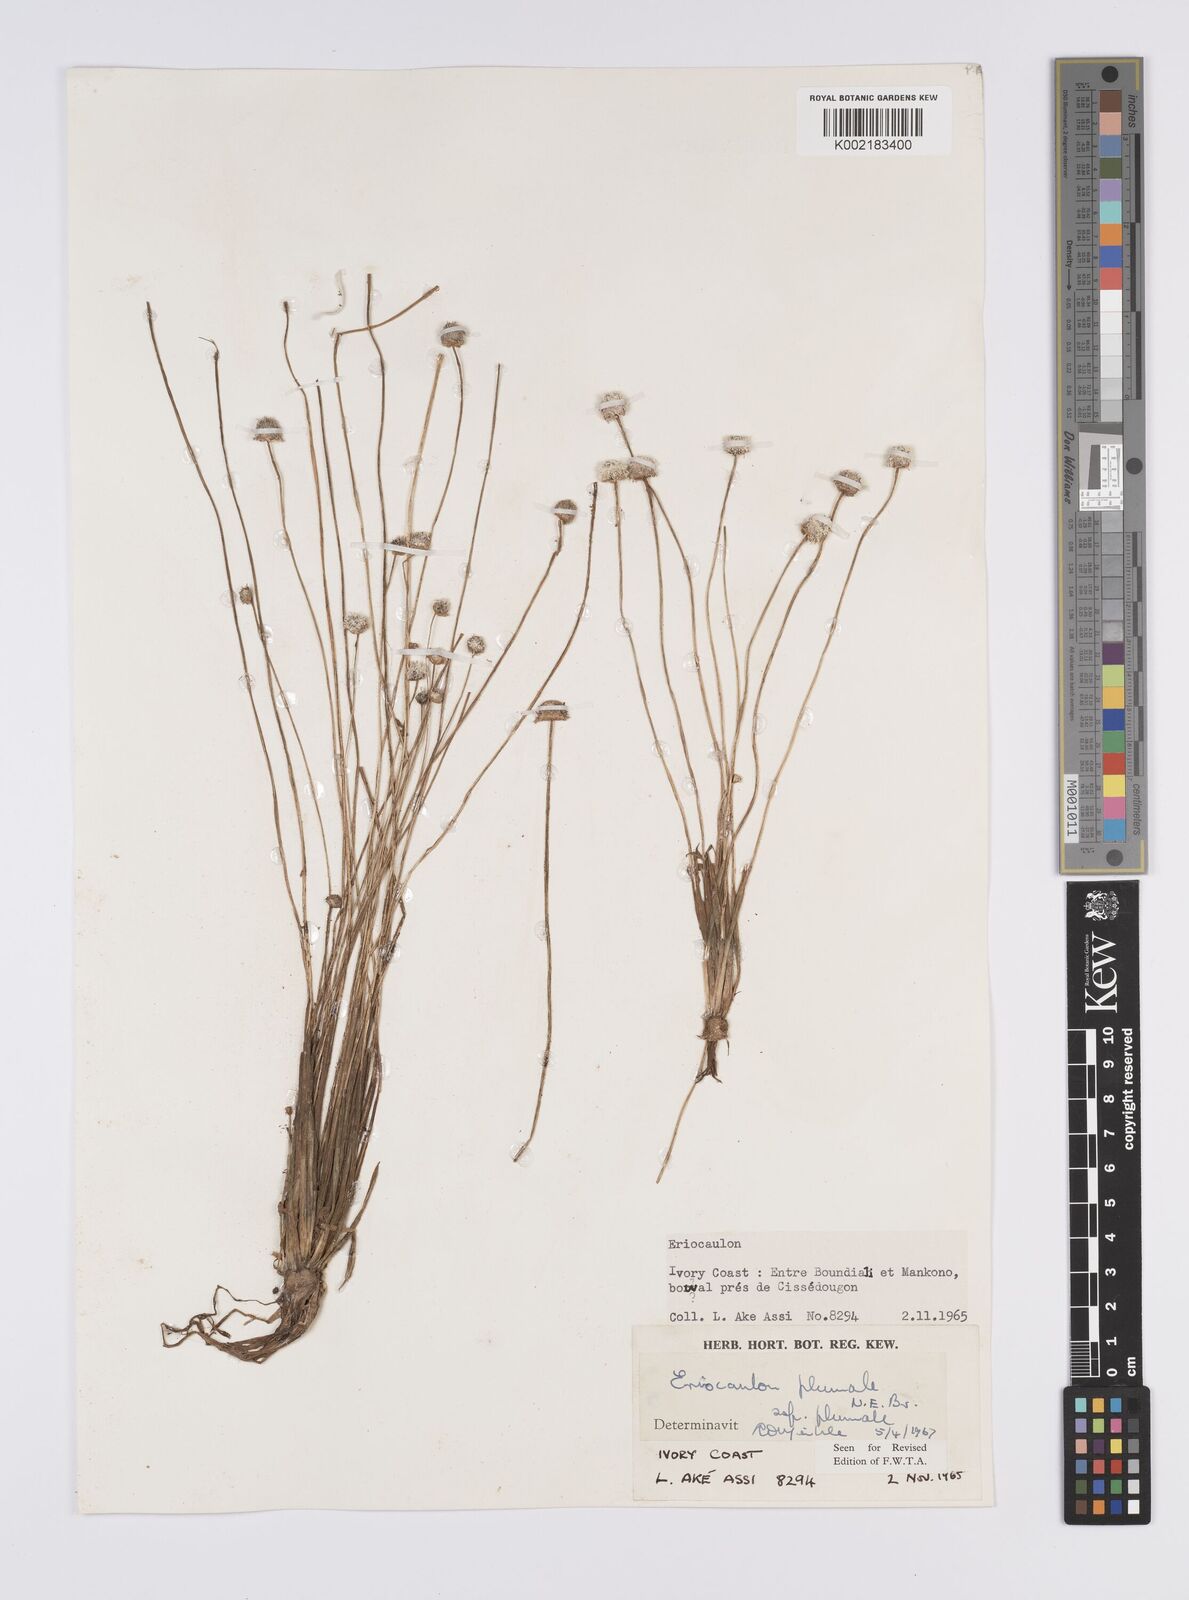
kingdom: Plantae
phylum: Tracheophyta
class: Liliopsida
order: Poales
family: Eriocaulaceae
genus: Eriocaulon
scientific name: Eriocaulon plumale
